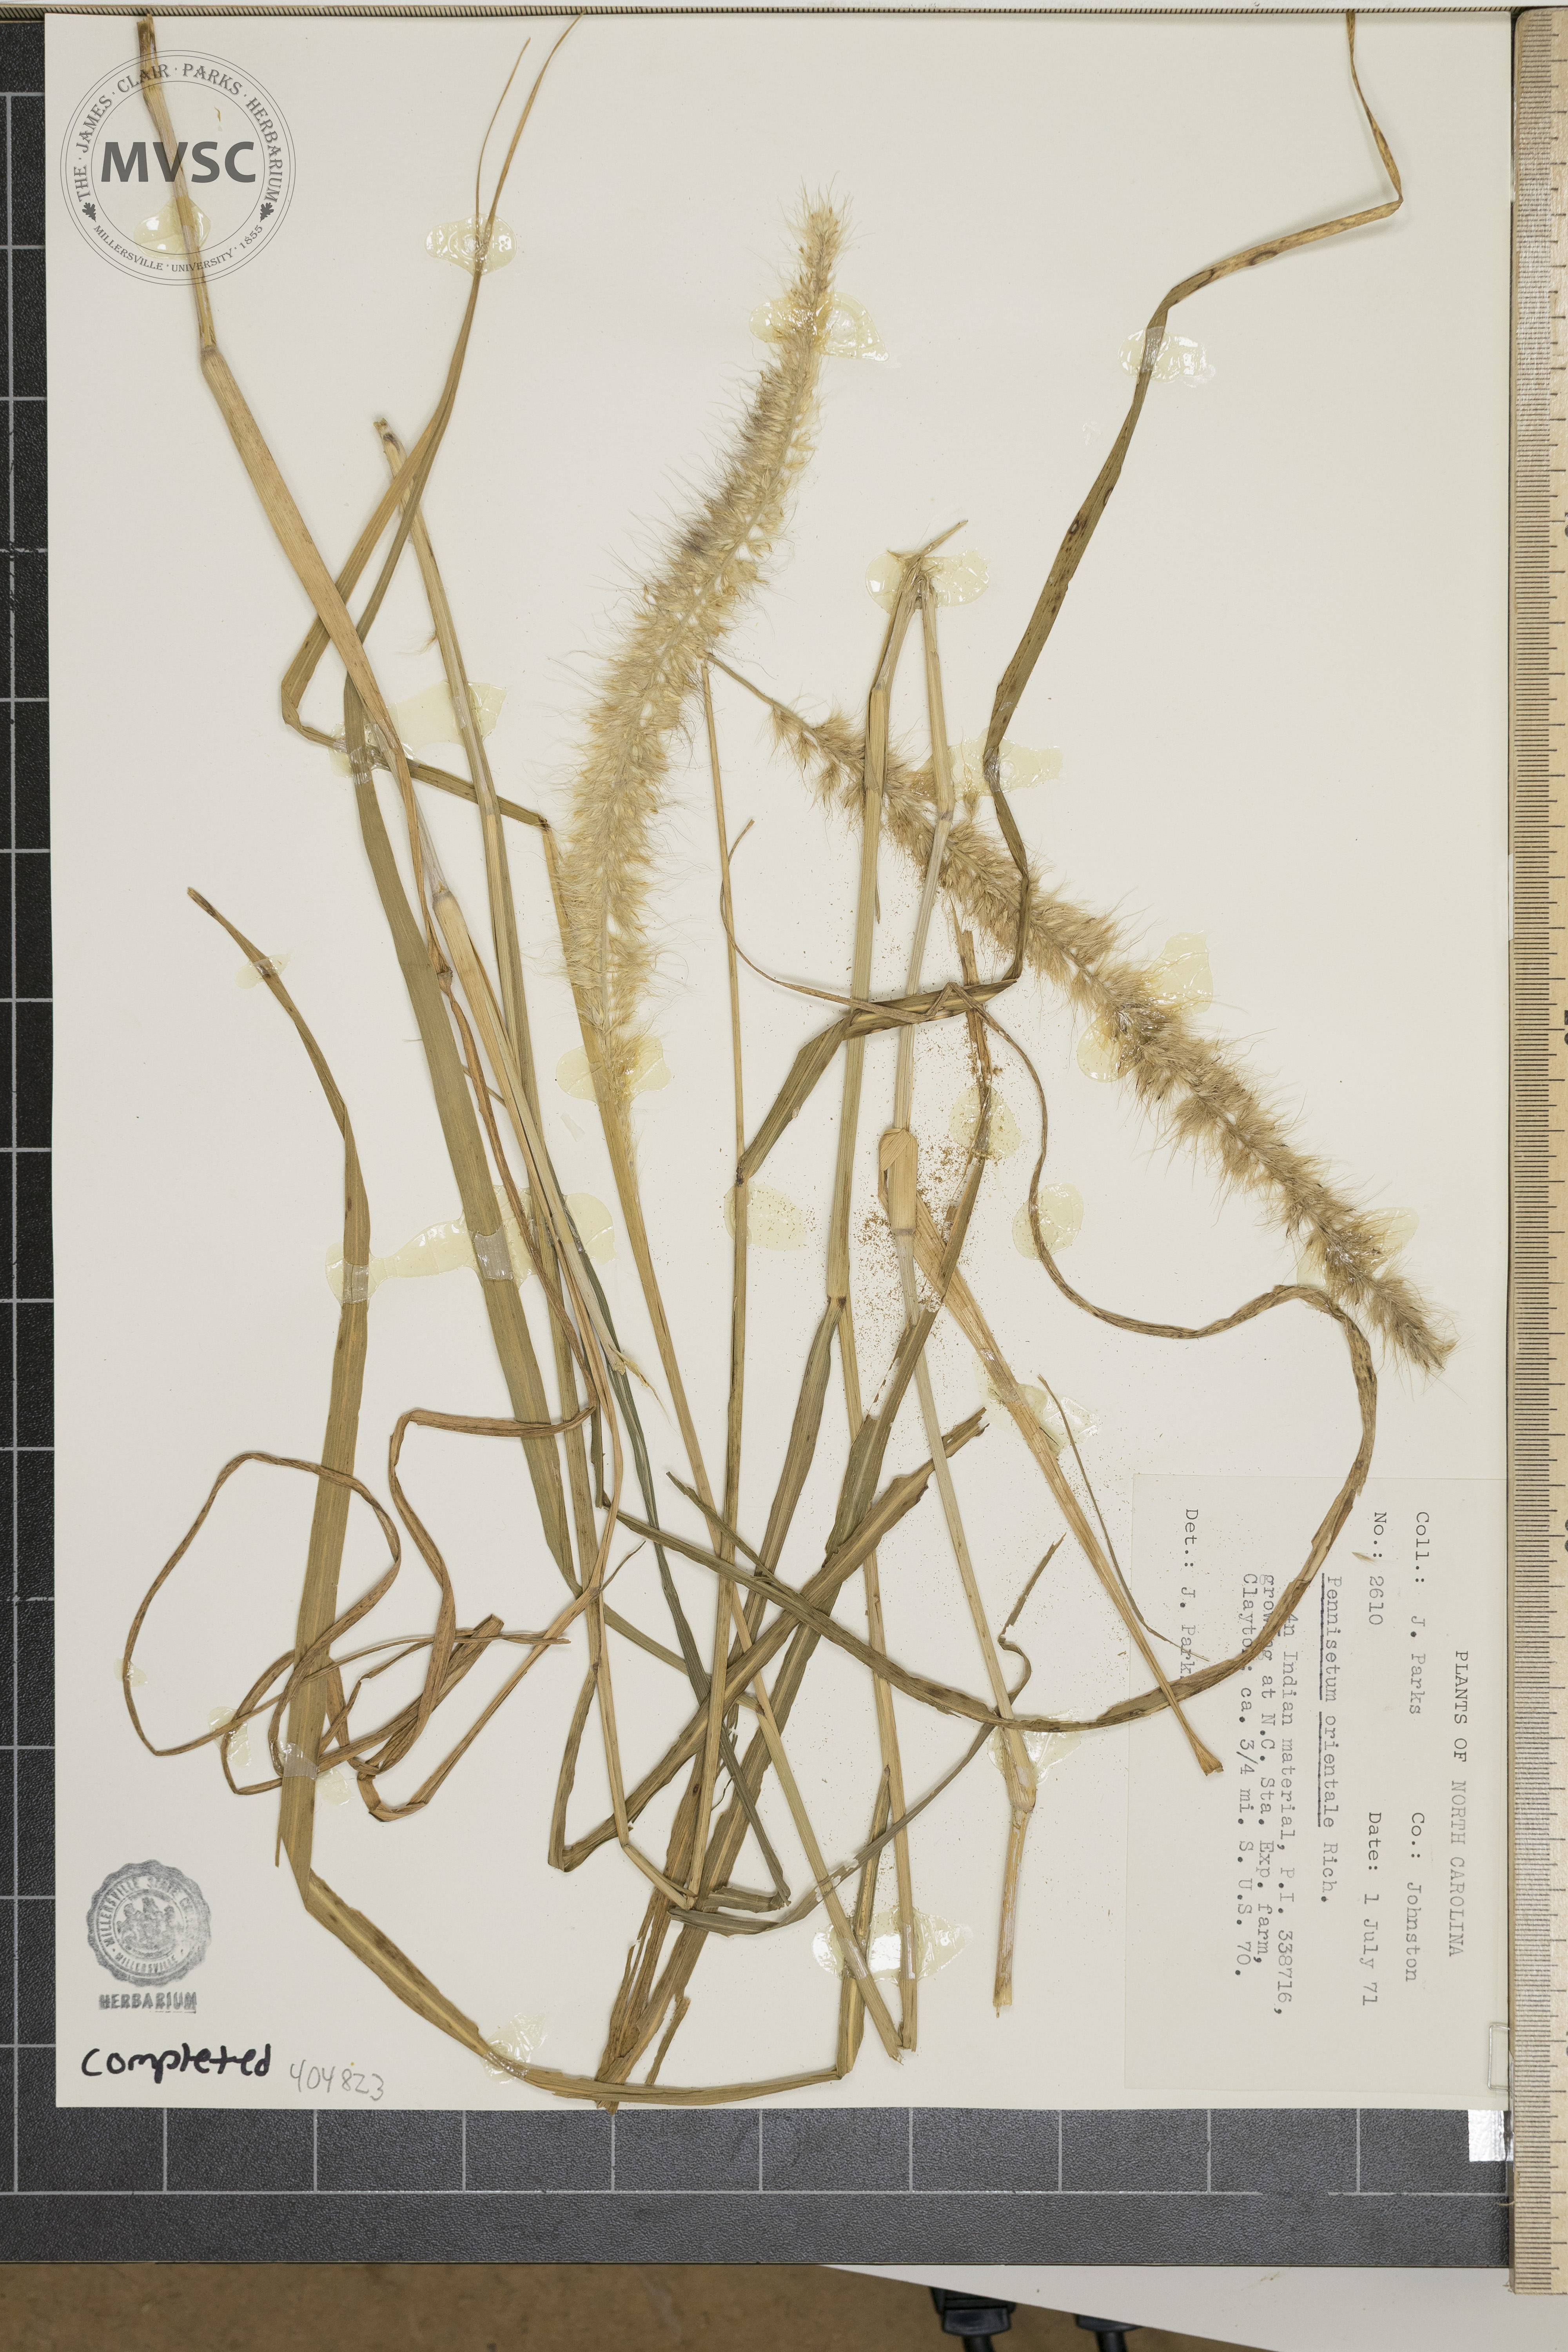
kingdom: Plantae
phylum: Tracheophyta
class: Liliopsida
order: Poales
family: Poaceae
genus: Cenchrus
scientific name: Cenchrus orientalis
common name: Oriental fountain grass
